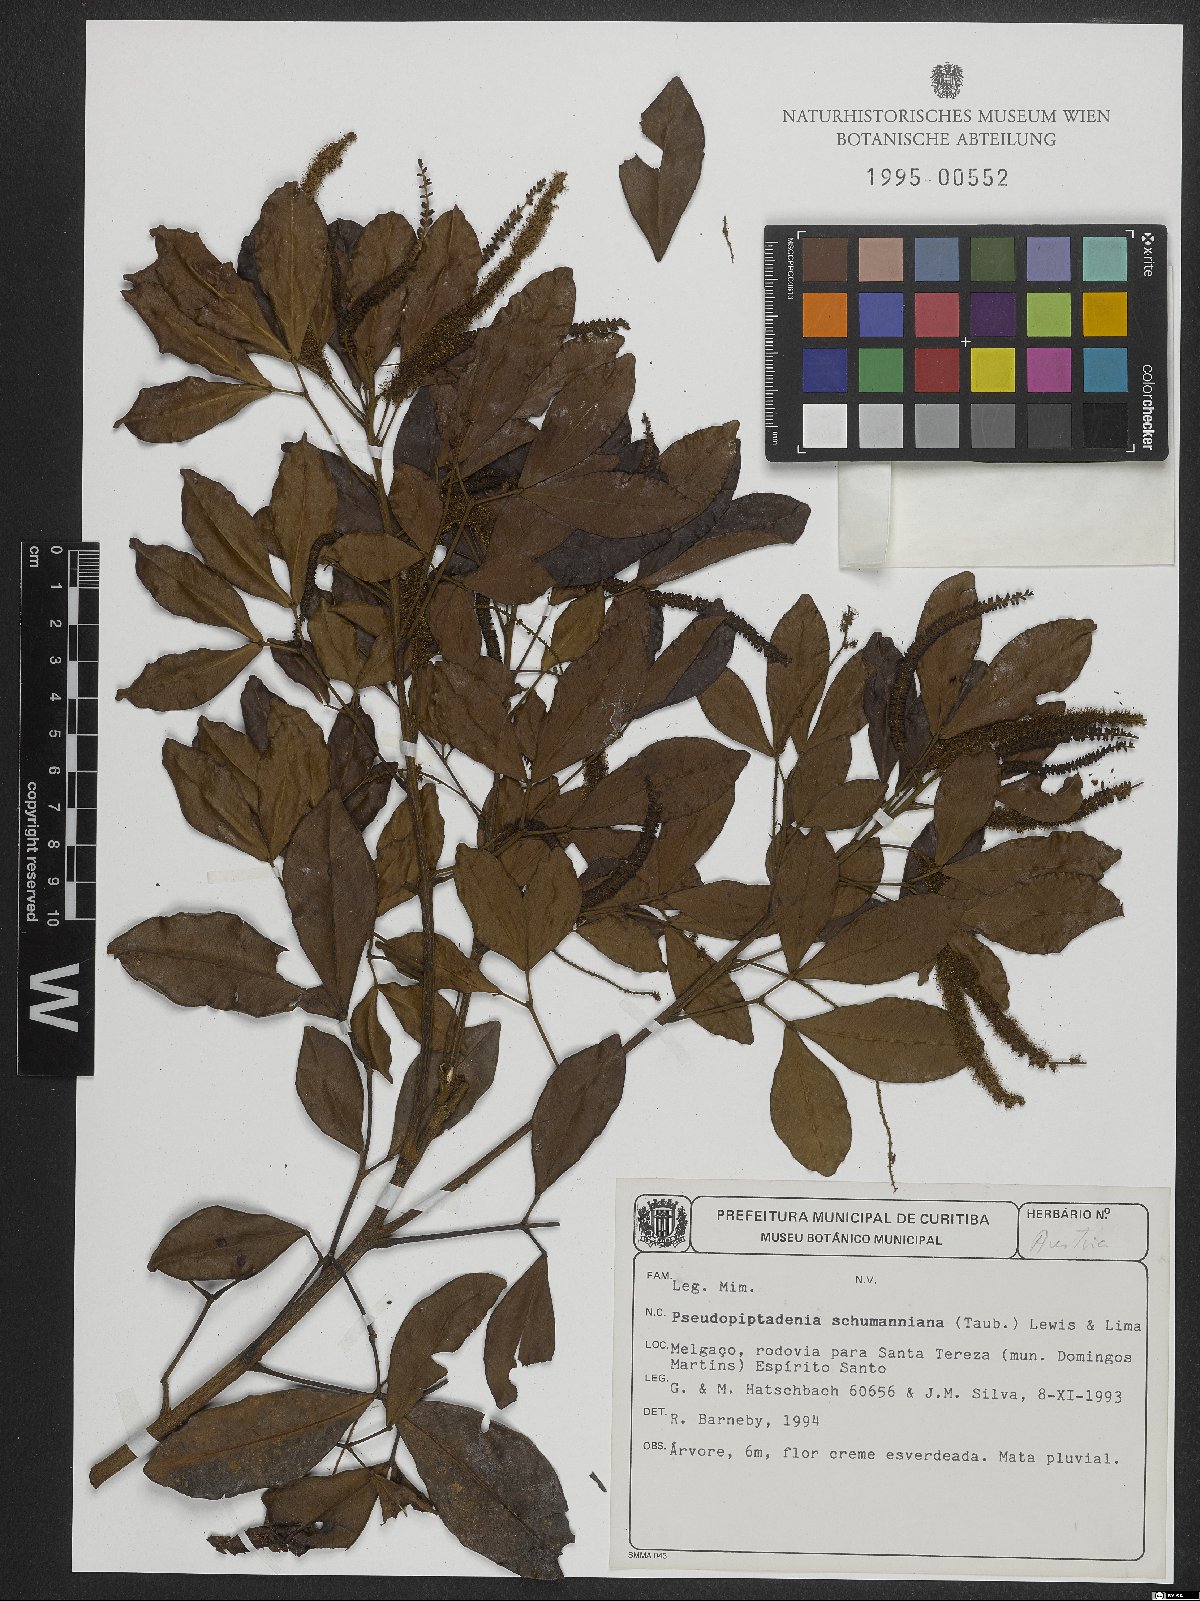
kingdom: Plantae
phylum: Tracheophyta
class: Magnoliopsida
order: Fabales
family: Fabaceae
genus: Pseudopiptadenia
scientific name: Pseudopiptadenia schumanniana
